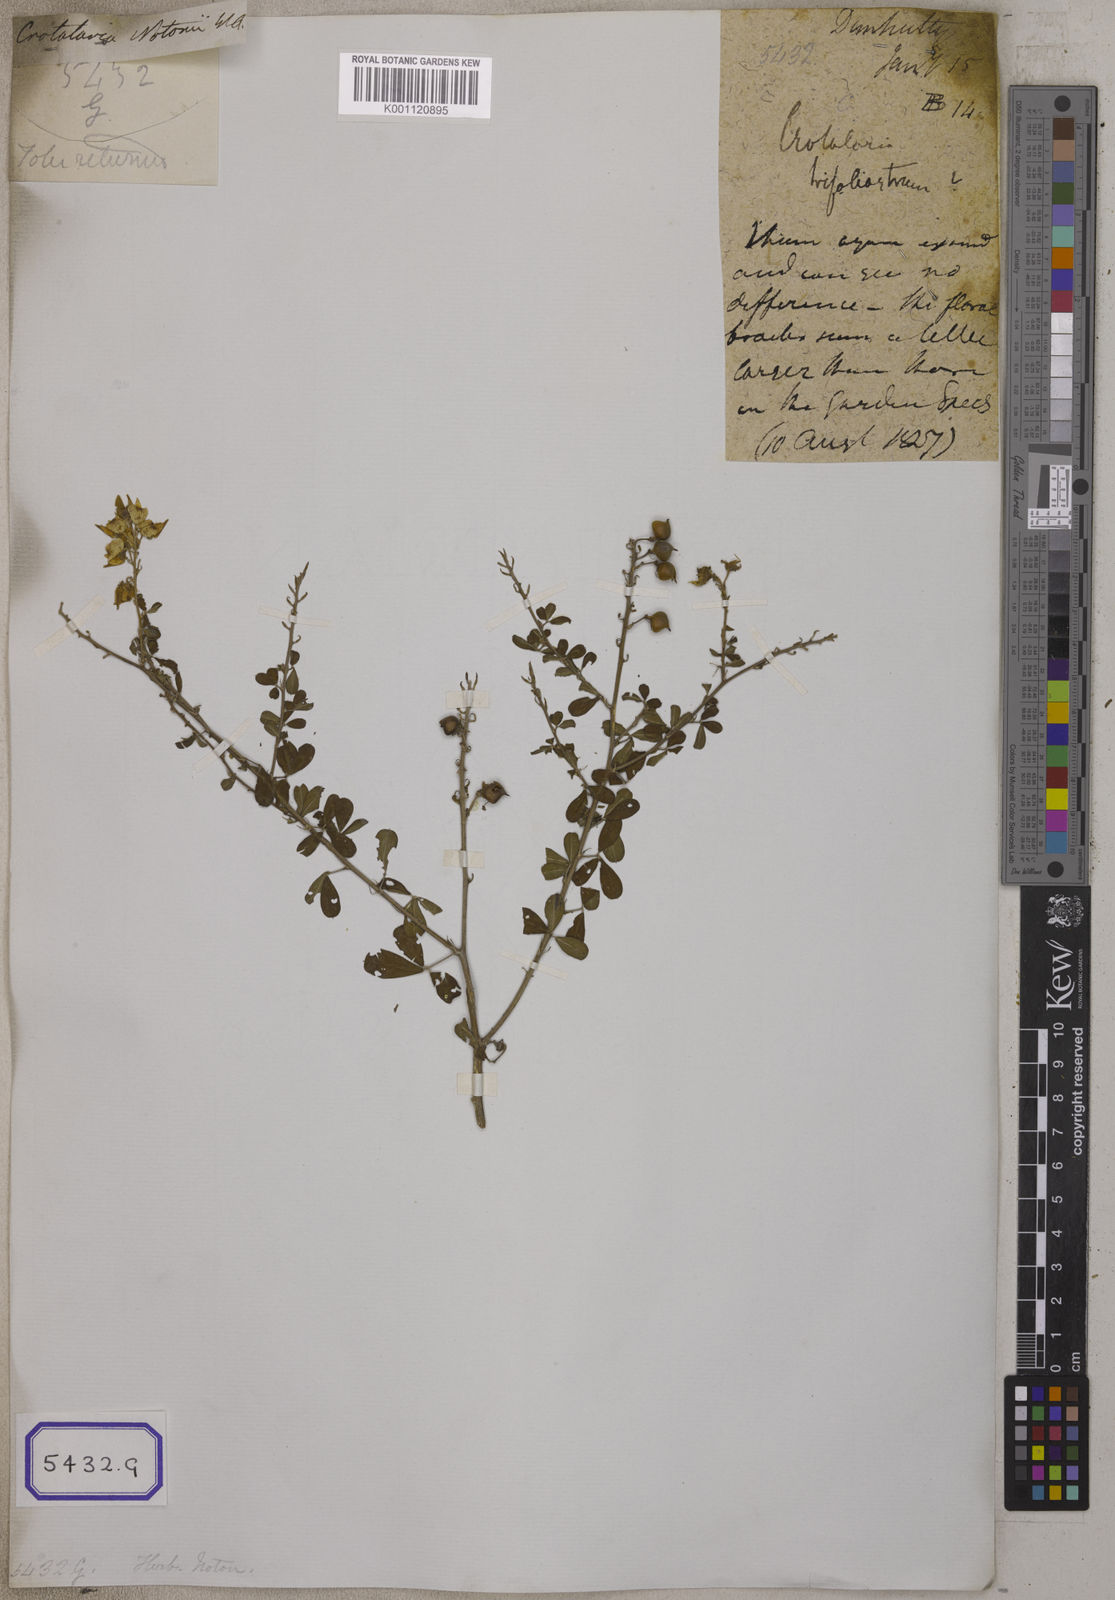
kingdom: Plantae
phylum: Tracheophyta
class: Magnoliopsida
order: Fabales
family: Fabaceae
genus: Crotalaria
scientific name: Crotalaria
